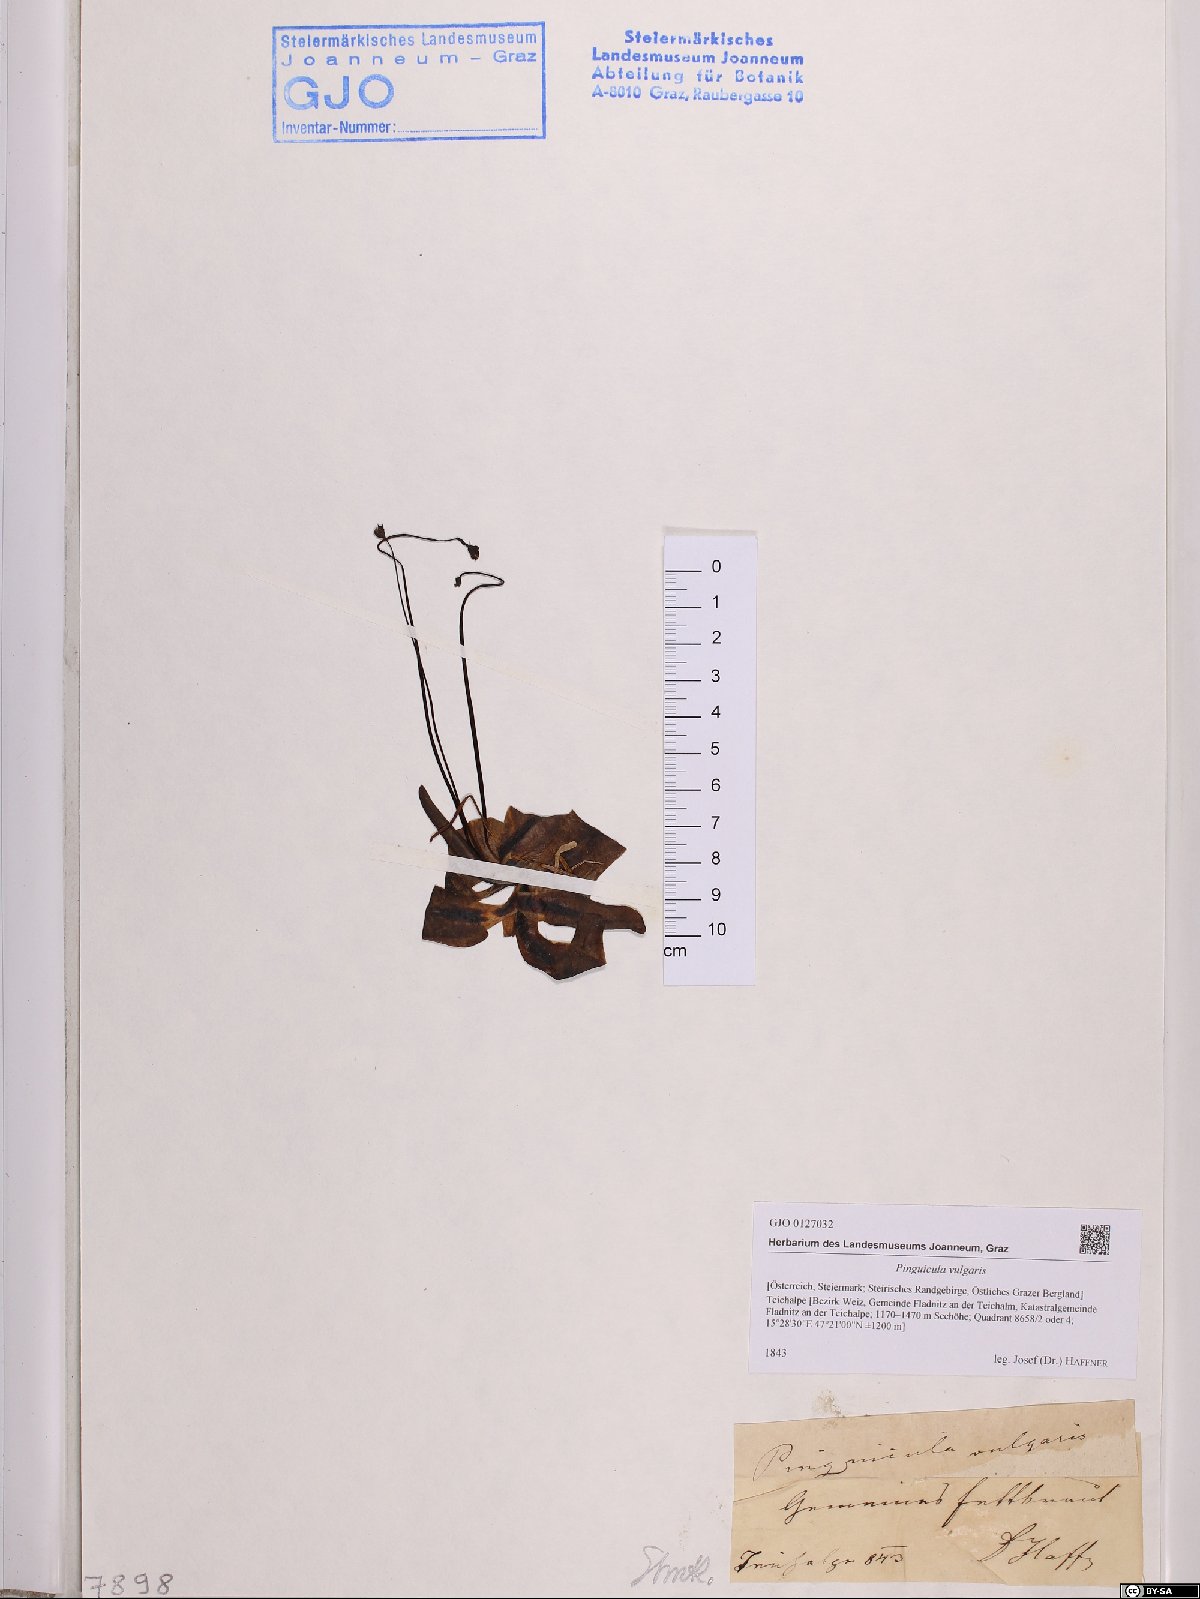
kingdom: Plantae
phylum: Tracheophyta
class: Magnoliopsida
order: Lamiales
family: Lentibulariaceae
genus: Pinguicula
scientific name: Pinguicula vulgaris
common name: Common butterwort
